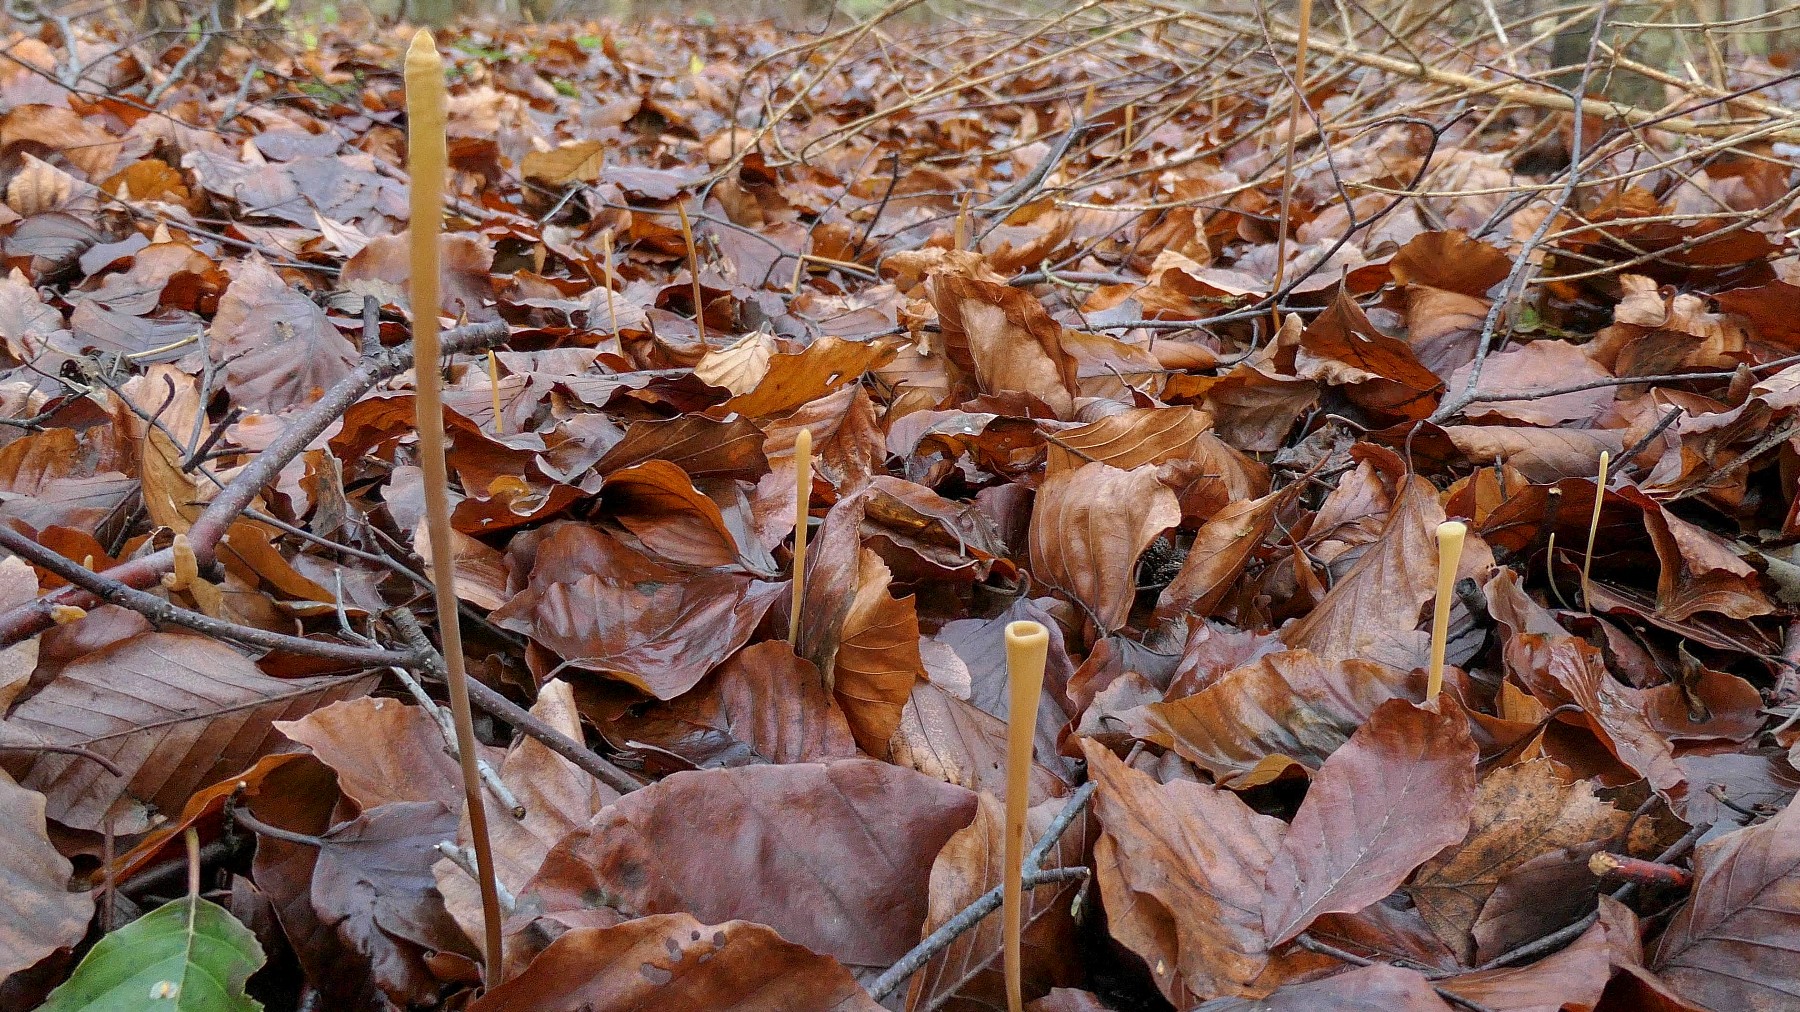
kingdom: Fungi
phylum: Basidiomycota
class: Agaricomycetes
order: Agaricales
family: Typhulaceae
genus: Typhula
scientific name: Typhula fistulosa
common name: pibet rørkølle
